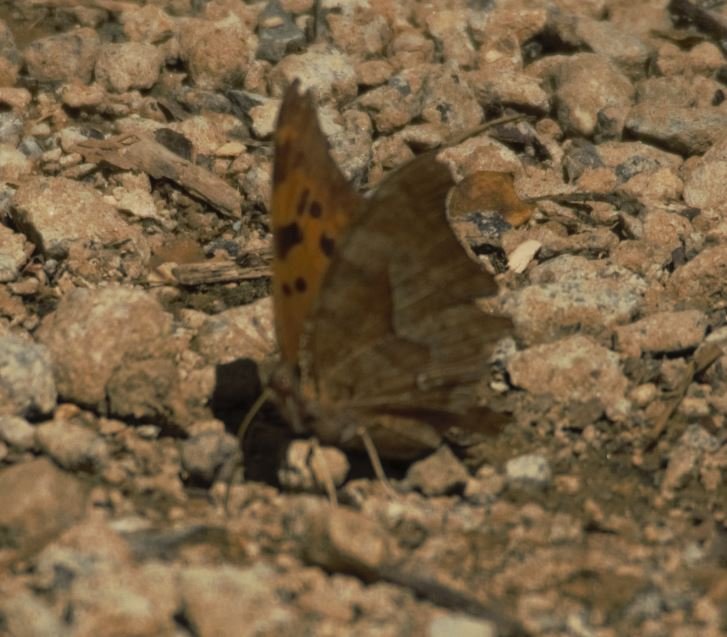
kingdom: Animalia
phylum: Arthropoda
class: Insecta
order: Lepidoptera
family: Nymphalidae
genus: Polygonia
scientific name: Polygonia interrogationis
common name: Question Mark
